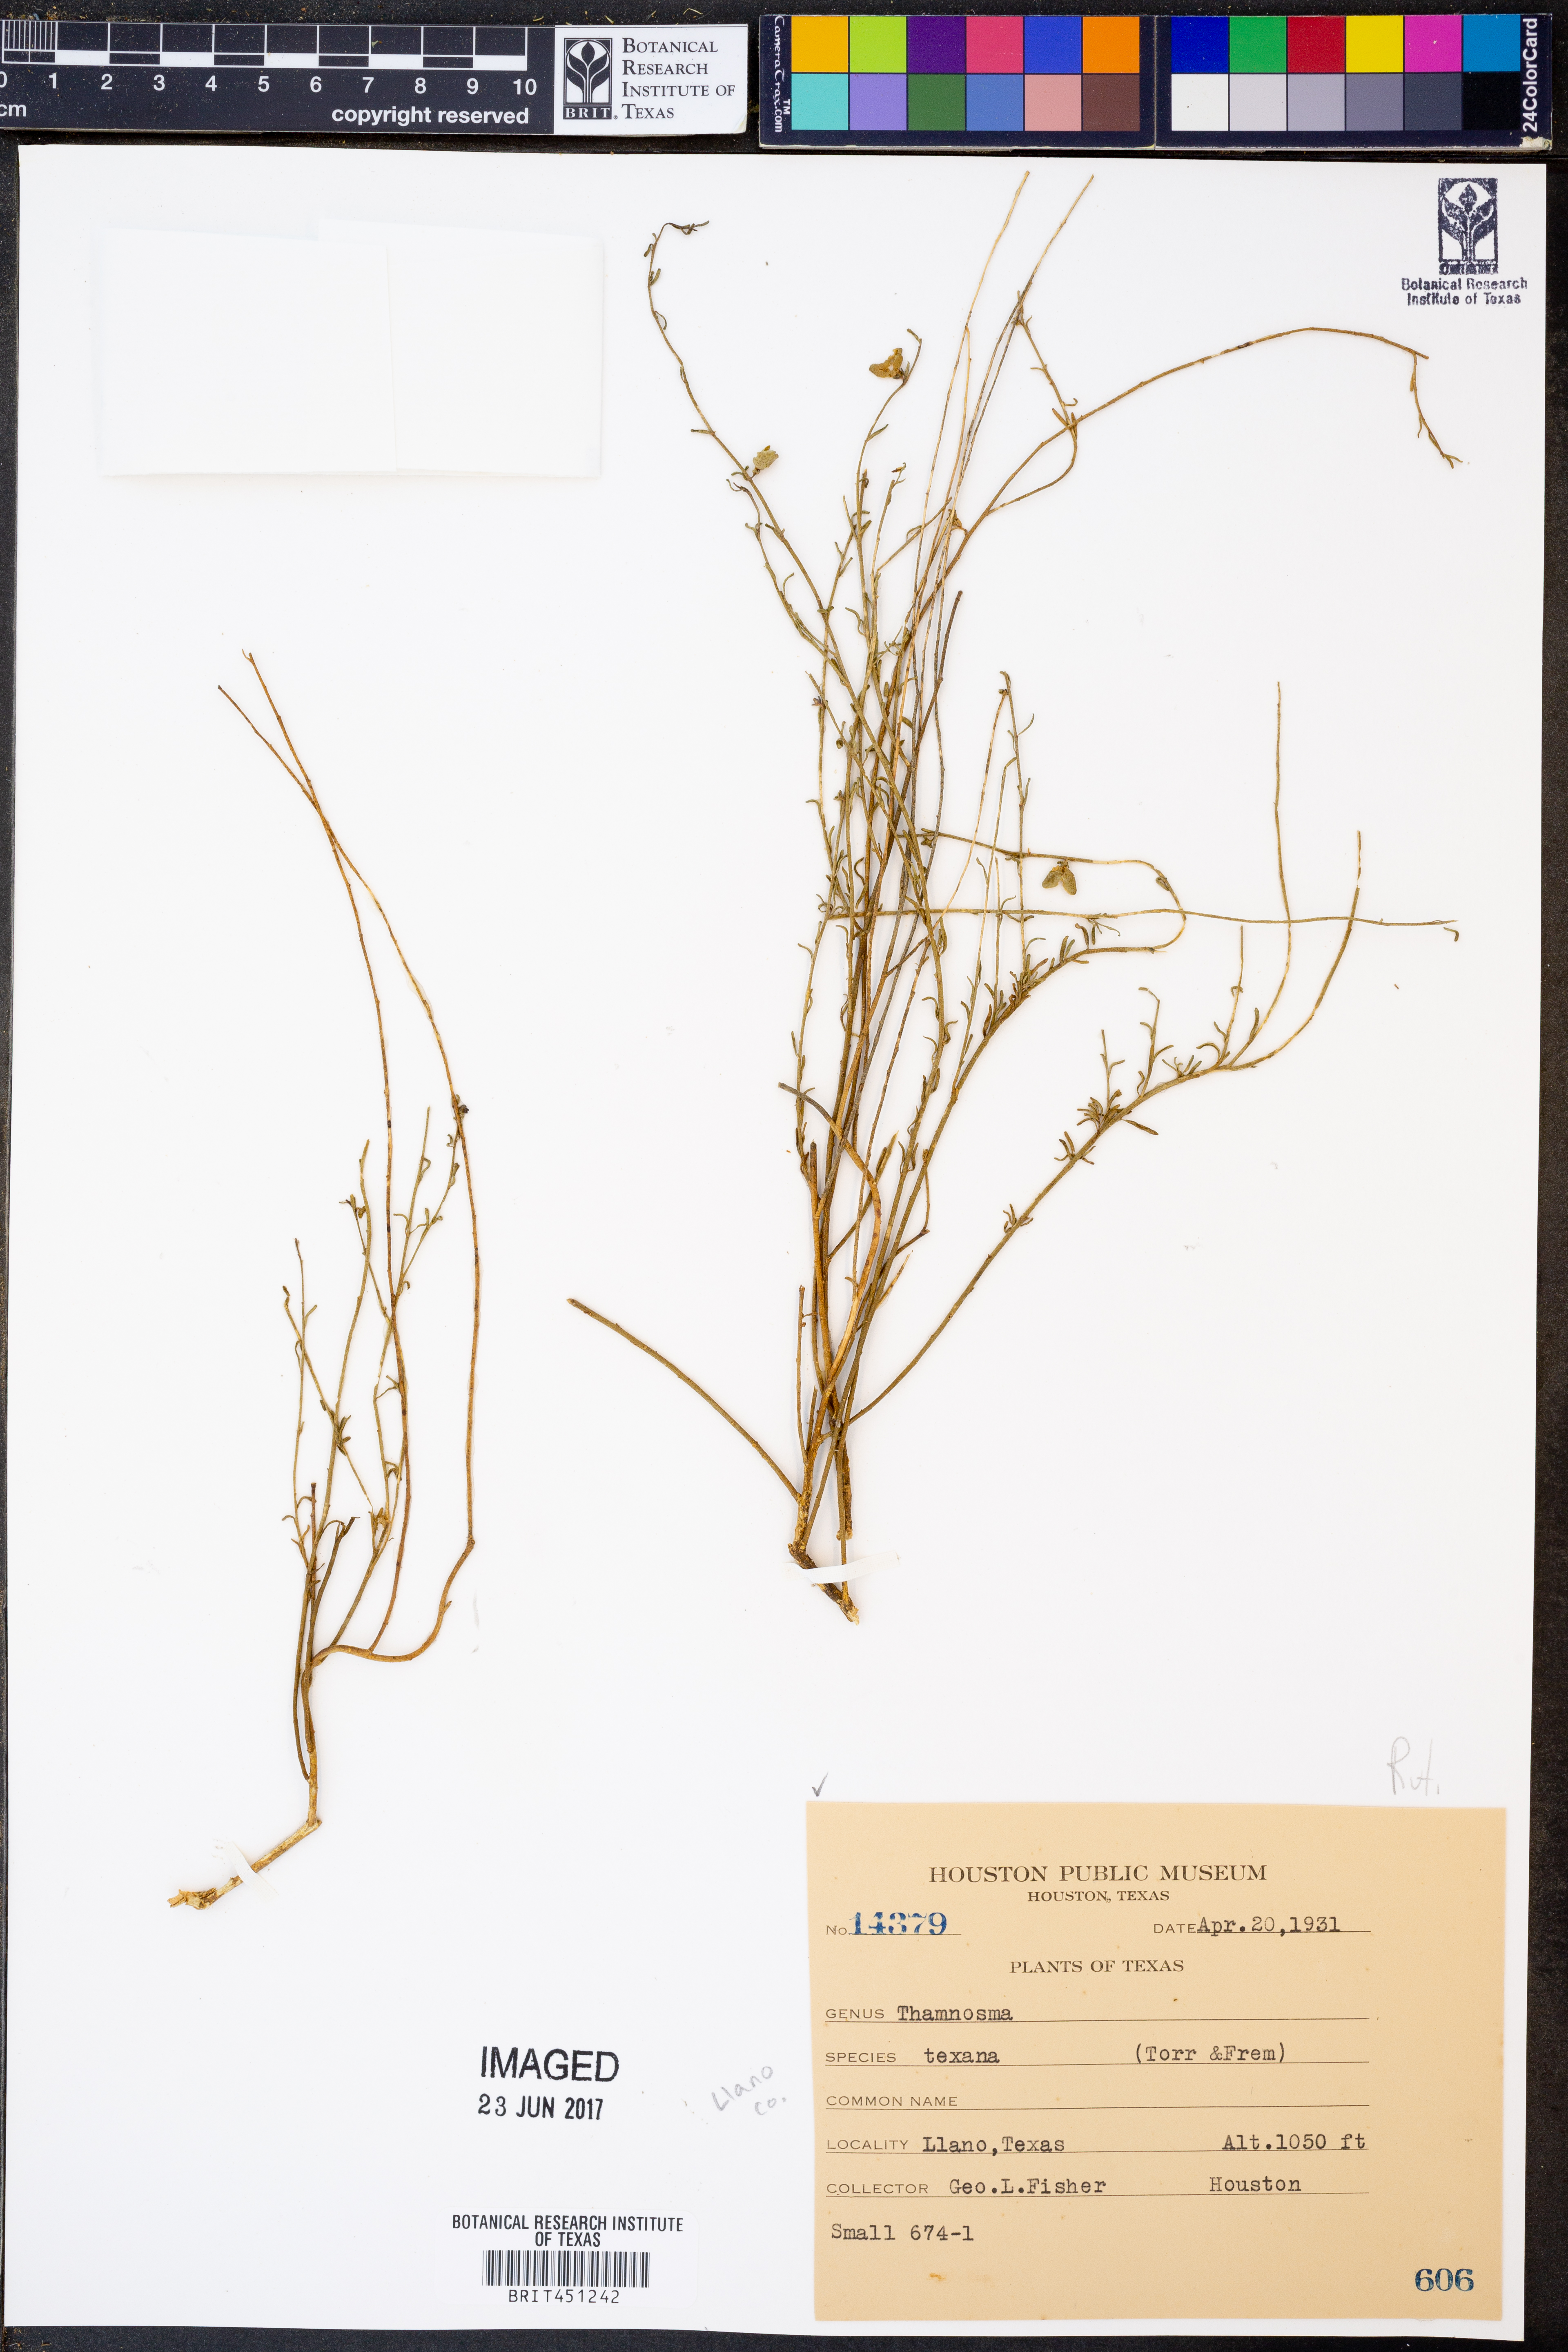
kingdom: Plantae
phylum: Tracheophyta
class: Magnoliopsida
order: Sapindales
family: Rutaceae
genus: Thamnosma
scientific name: Thamnosma texana
